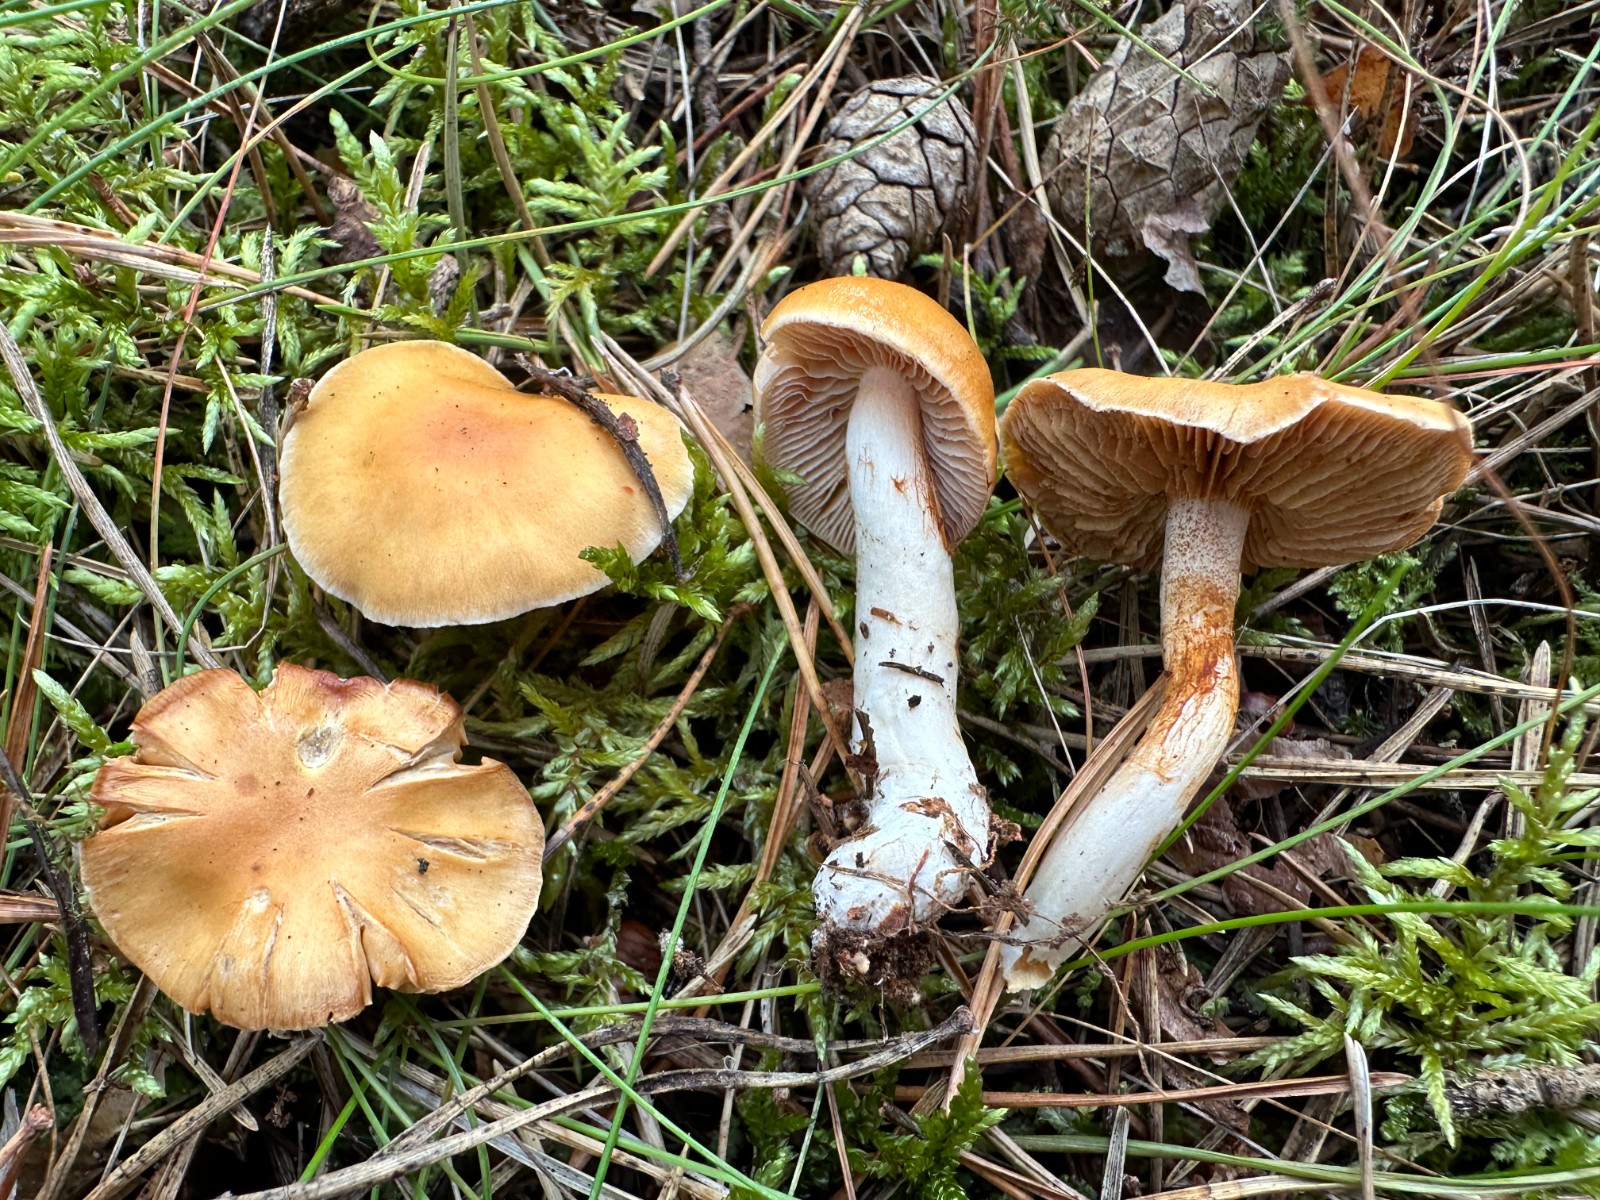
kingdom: Fungi
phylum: Basidiomycota
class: Agaricomycetes
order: Agaricales
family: Cortinariaceae
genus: Thaxterogaster
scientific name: Thaxterogaster pluvius
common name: hvidgul slørhat
